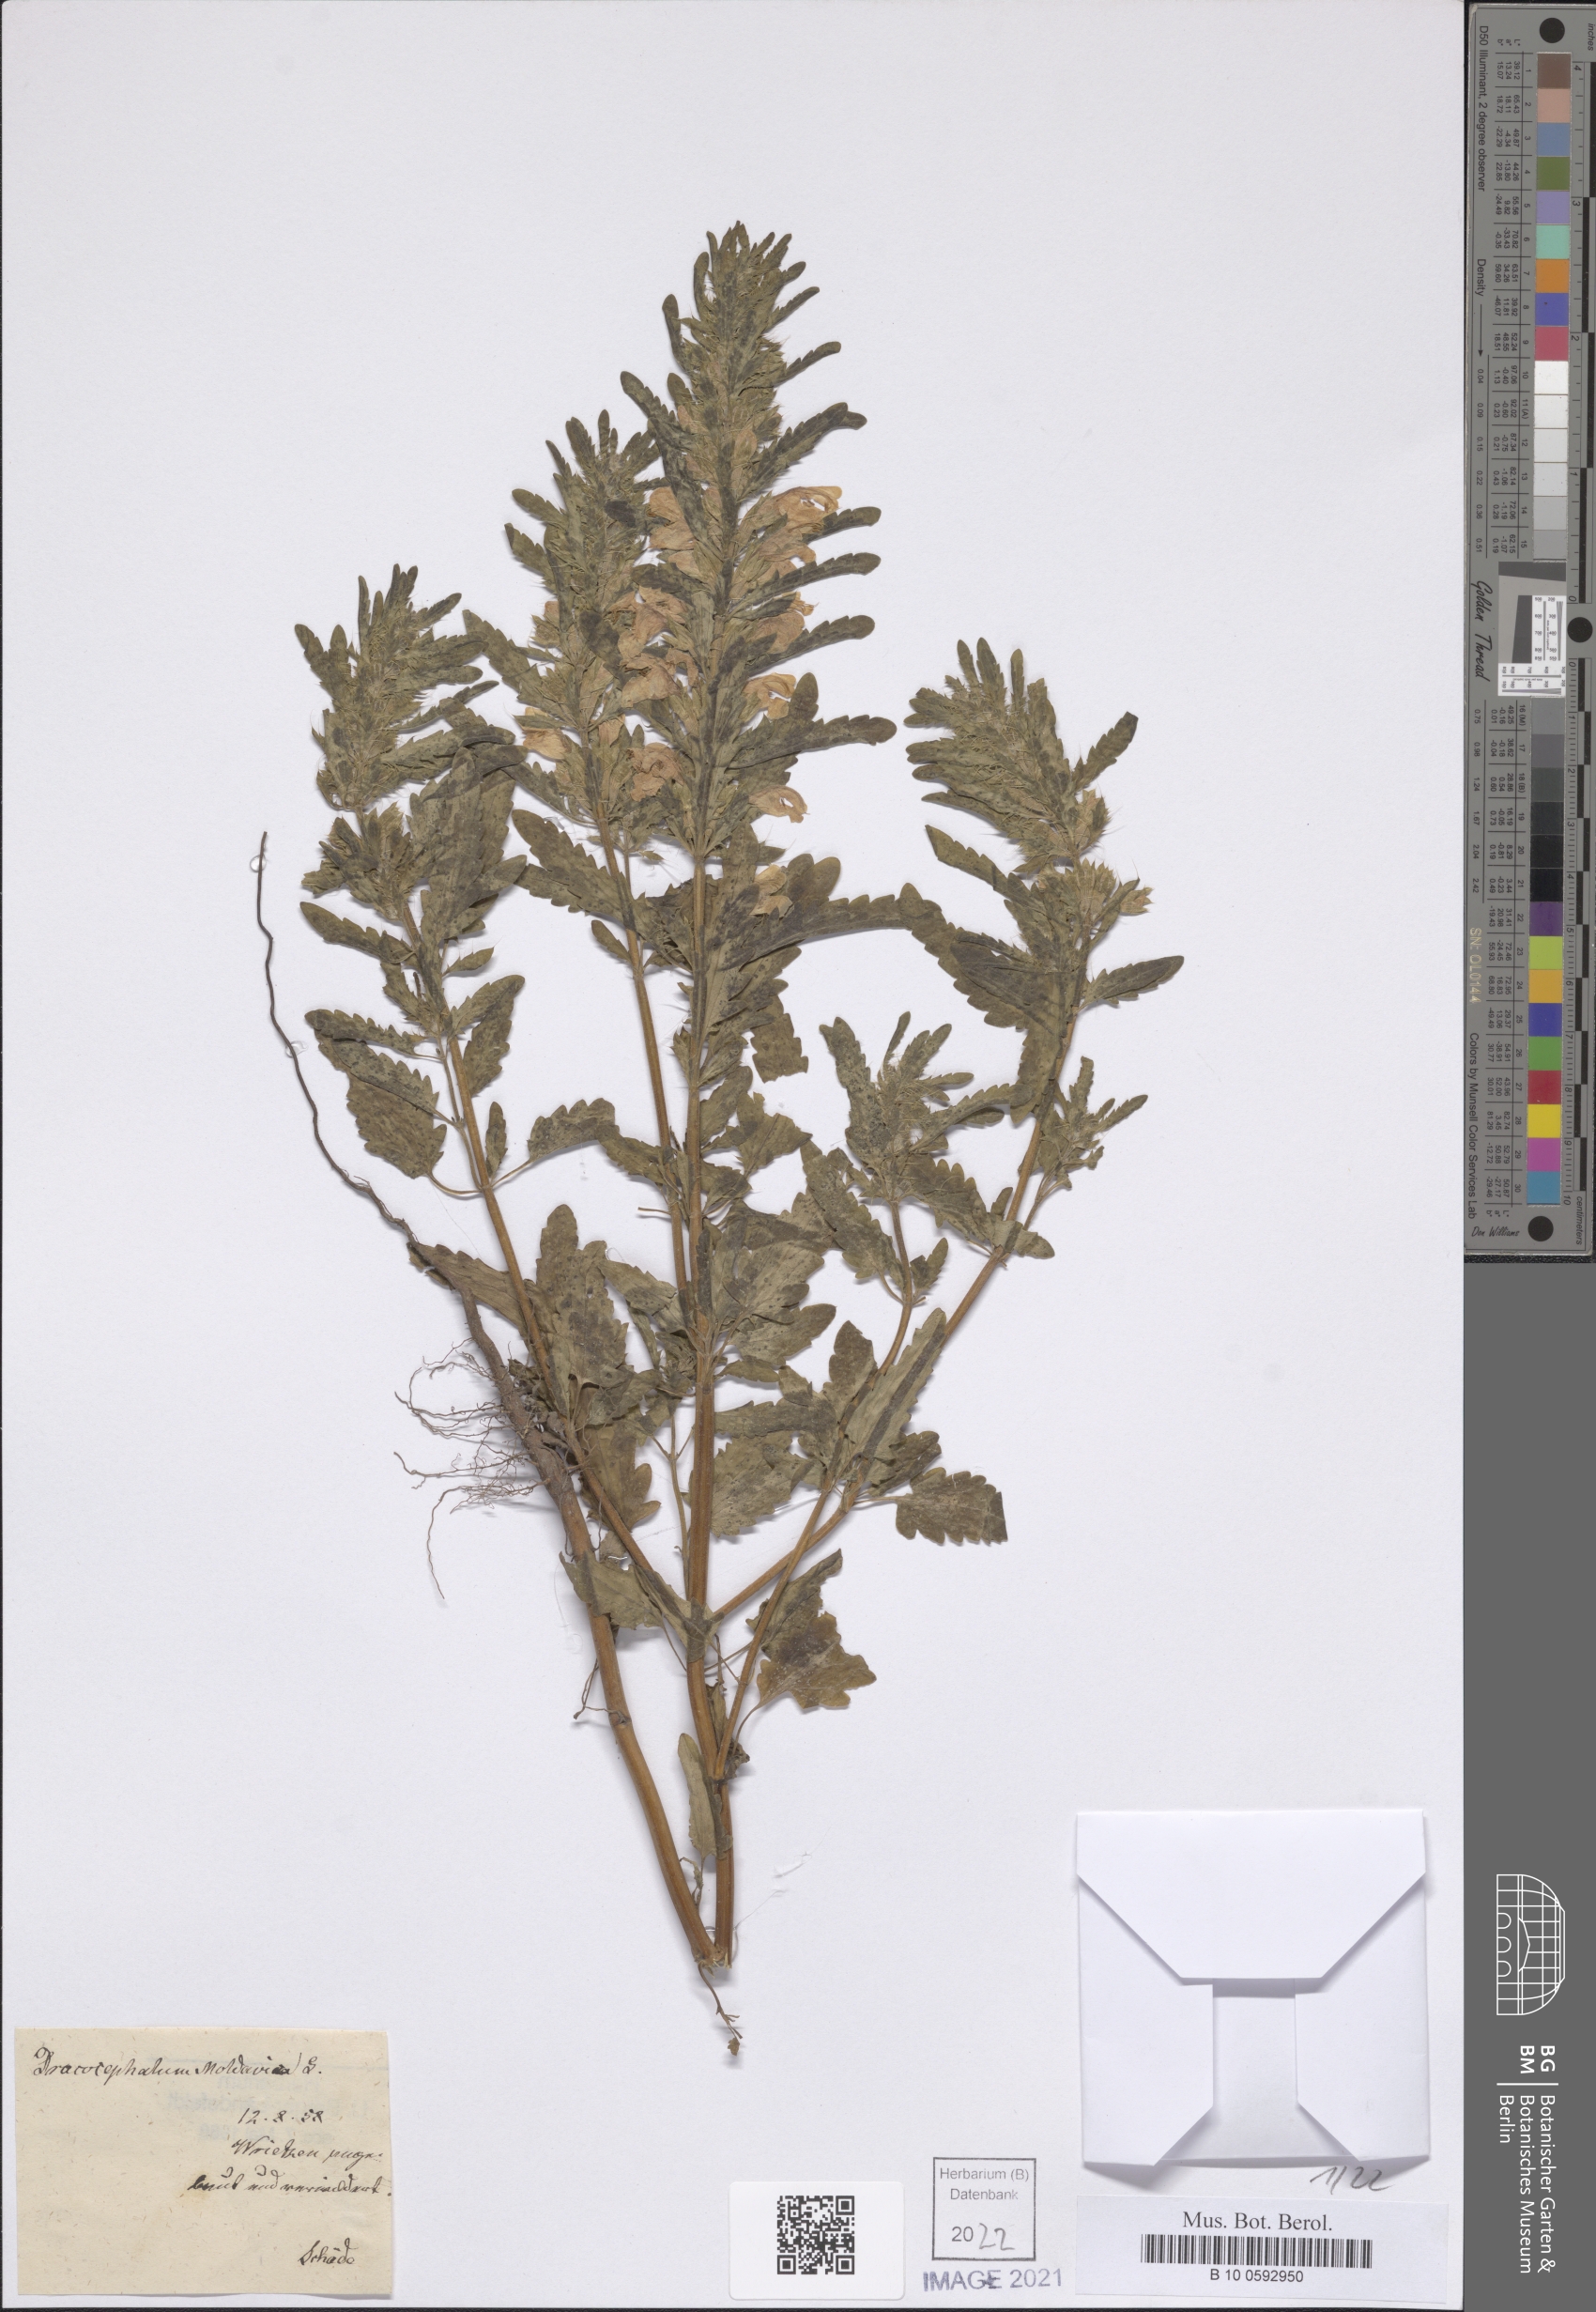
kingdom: Plantae
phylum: Tracheophyta
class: Magnoliopsida
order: Lamiales
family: Lamiaceae
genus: Dracocephalum
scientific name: Dracocephalum moldavica
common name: Moldavian dragonhead
